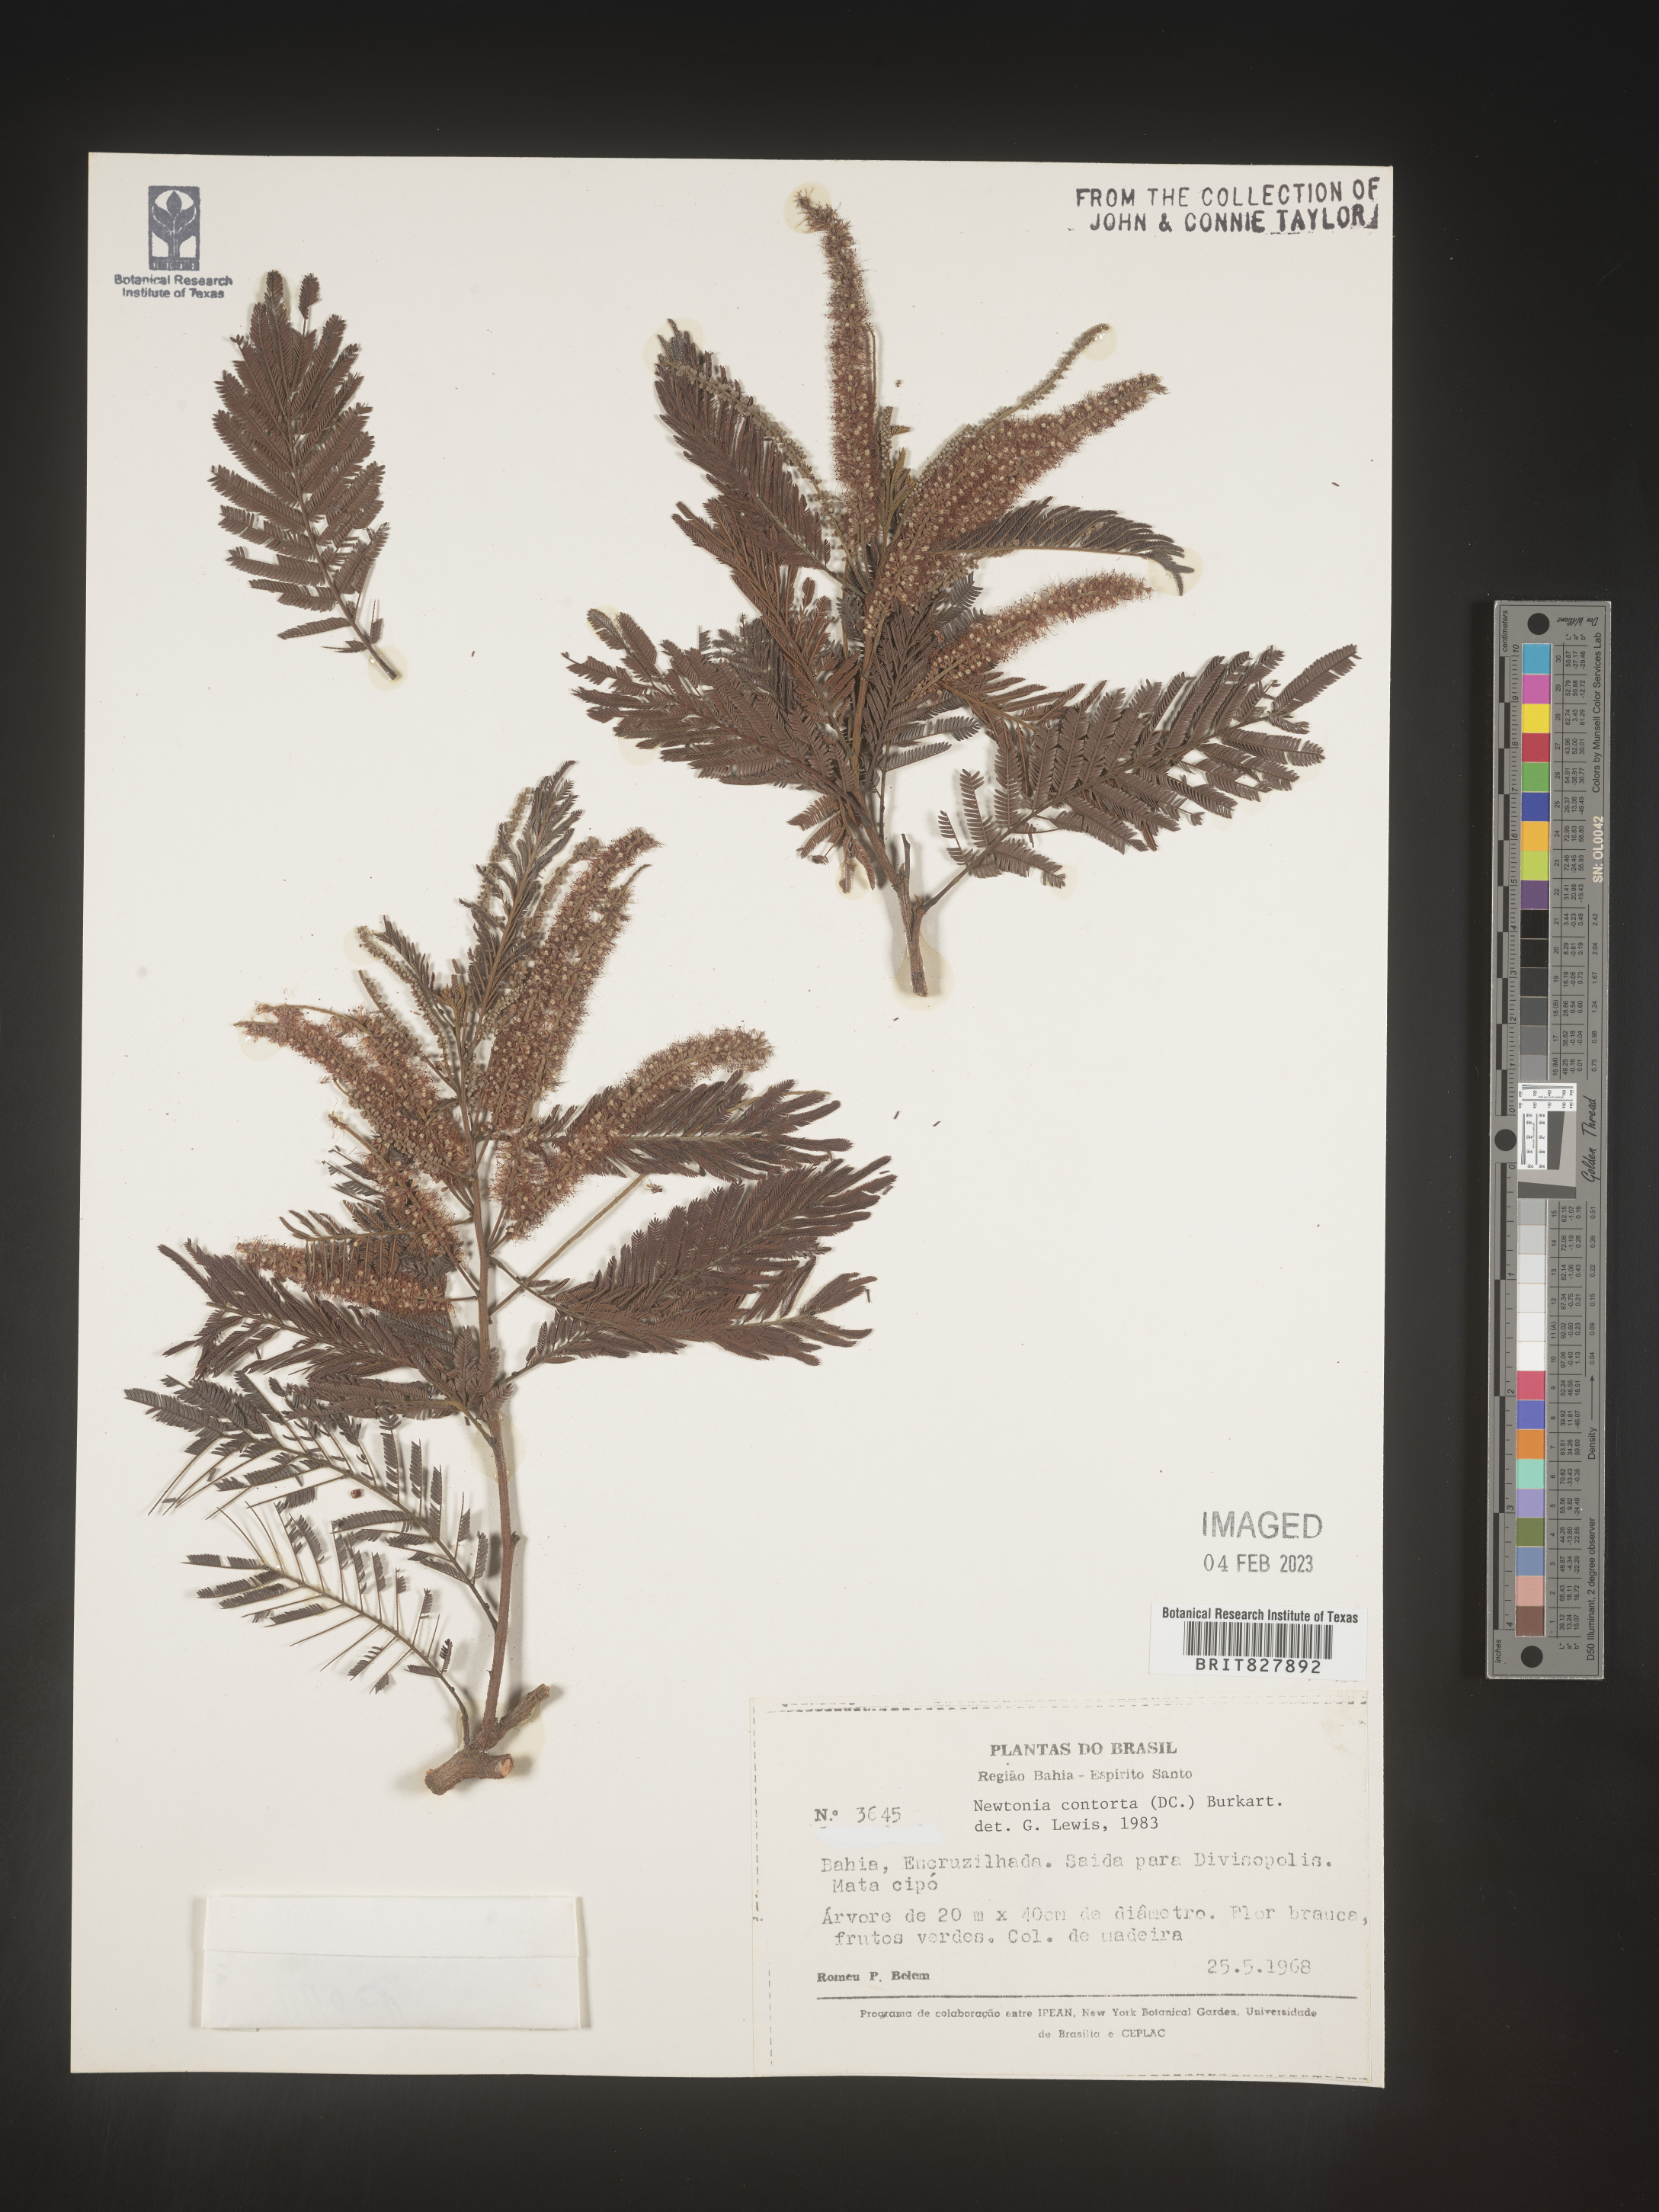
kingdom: Plantae
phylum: Tracheophyta
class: Magnoliopsida
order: Fabales
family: Fabaceae
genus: Newtonia
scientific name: Newtonia
